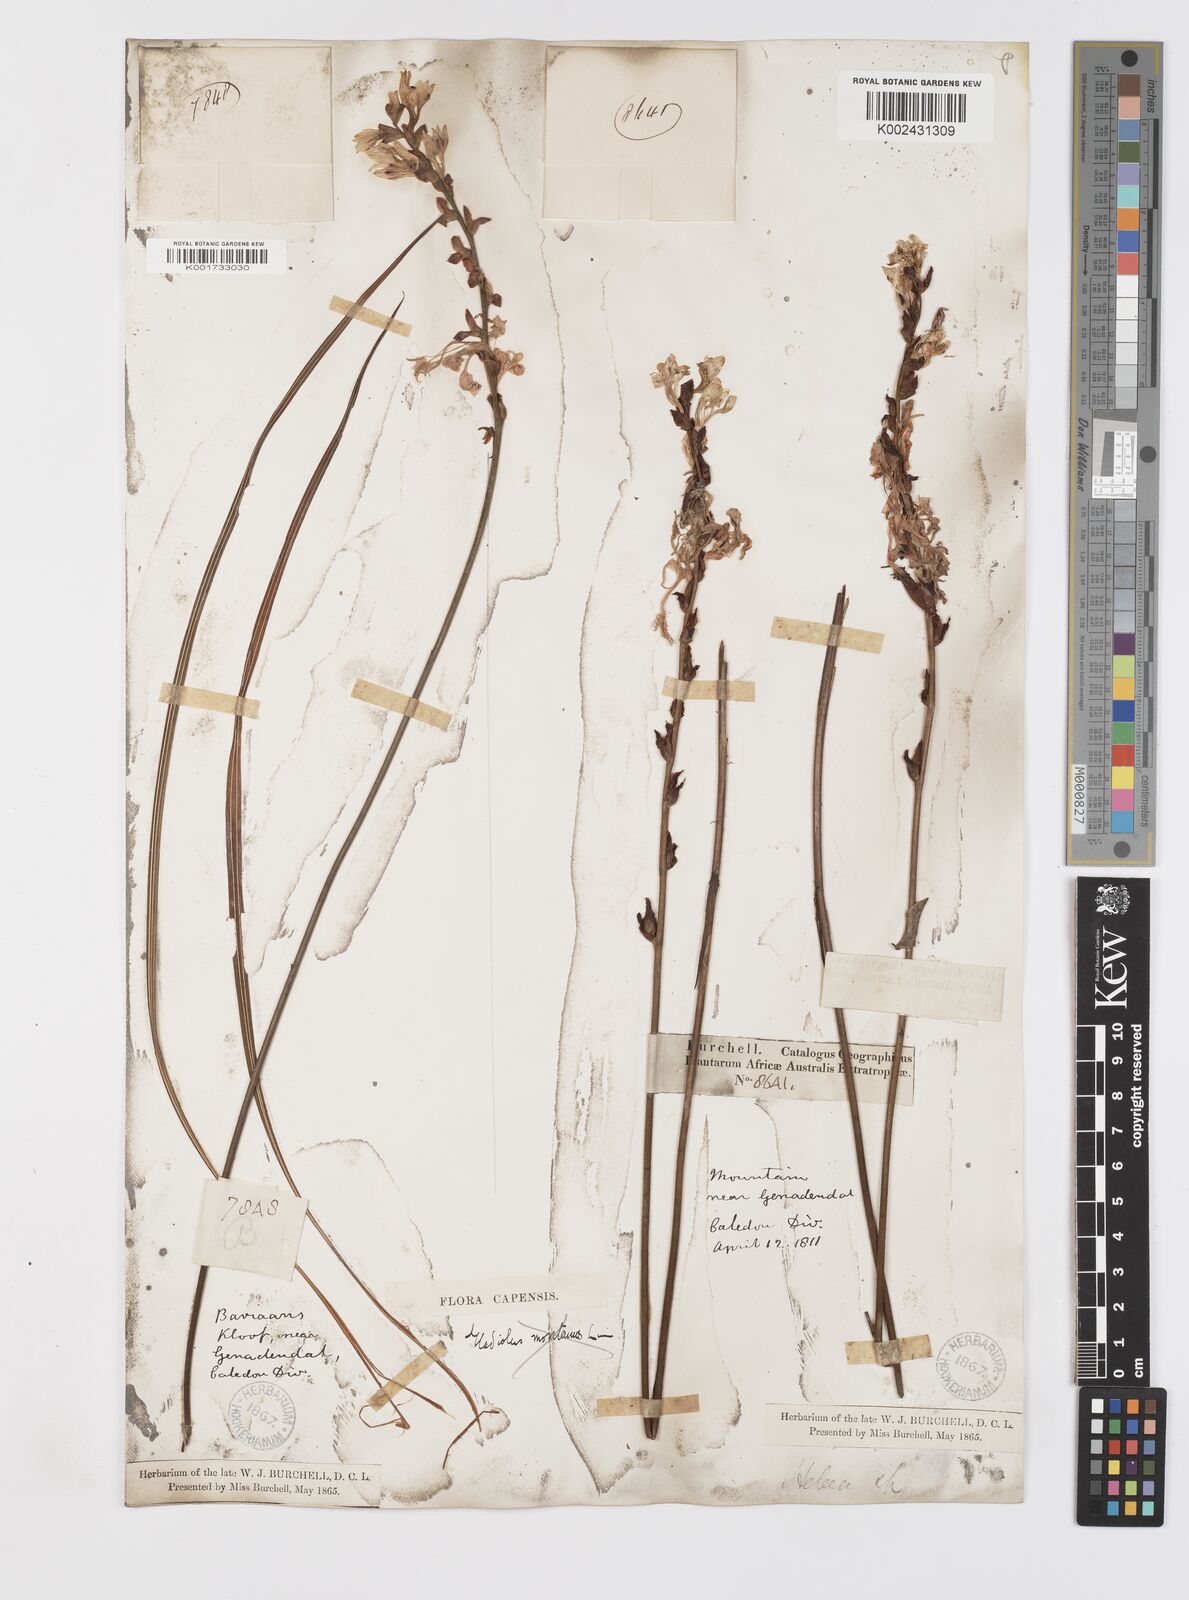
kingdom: Plantae
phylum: Tracheophyta
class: Liliopsida
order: Asparagales
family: Iridaceae
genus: Tritoniopsis
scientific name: Tritoniopsis lata
